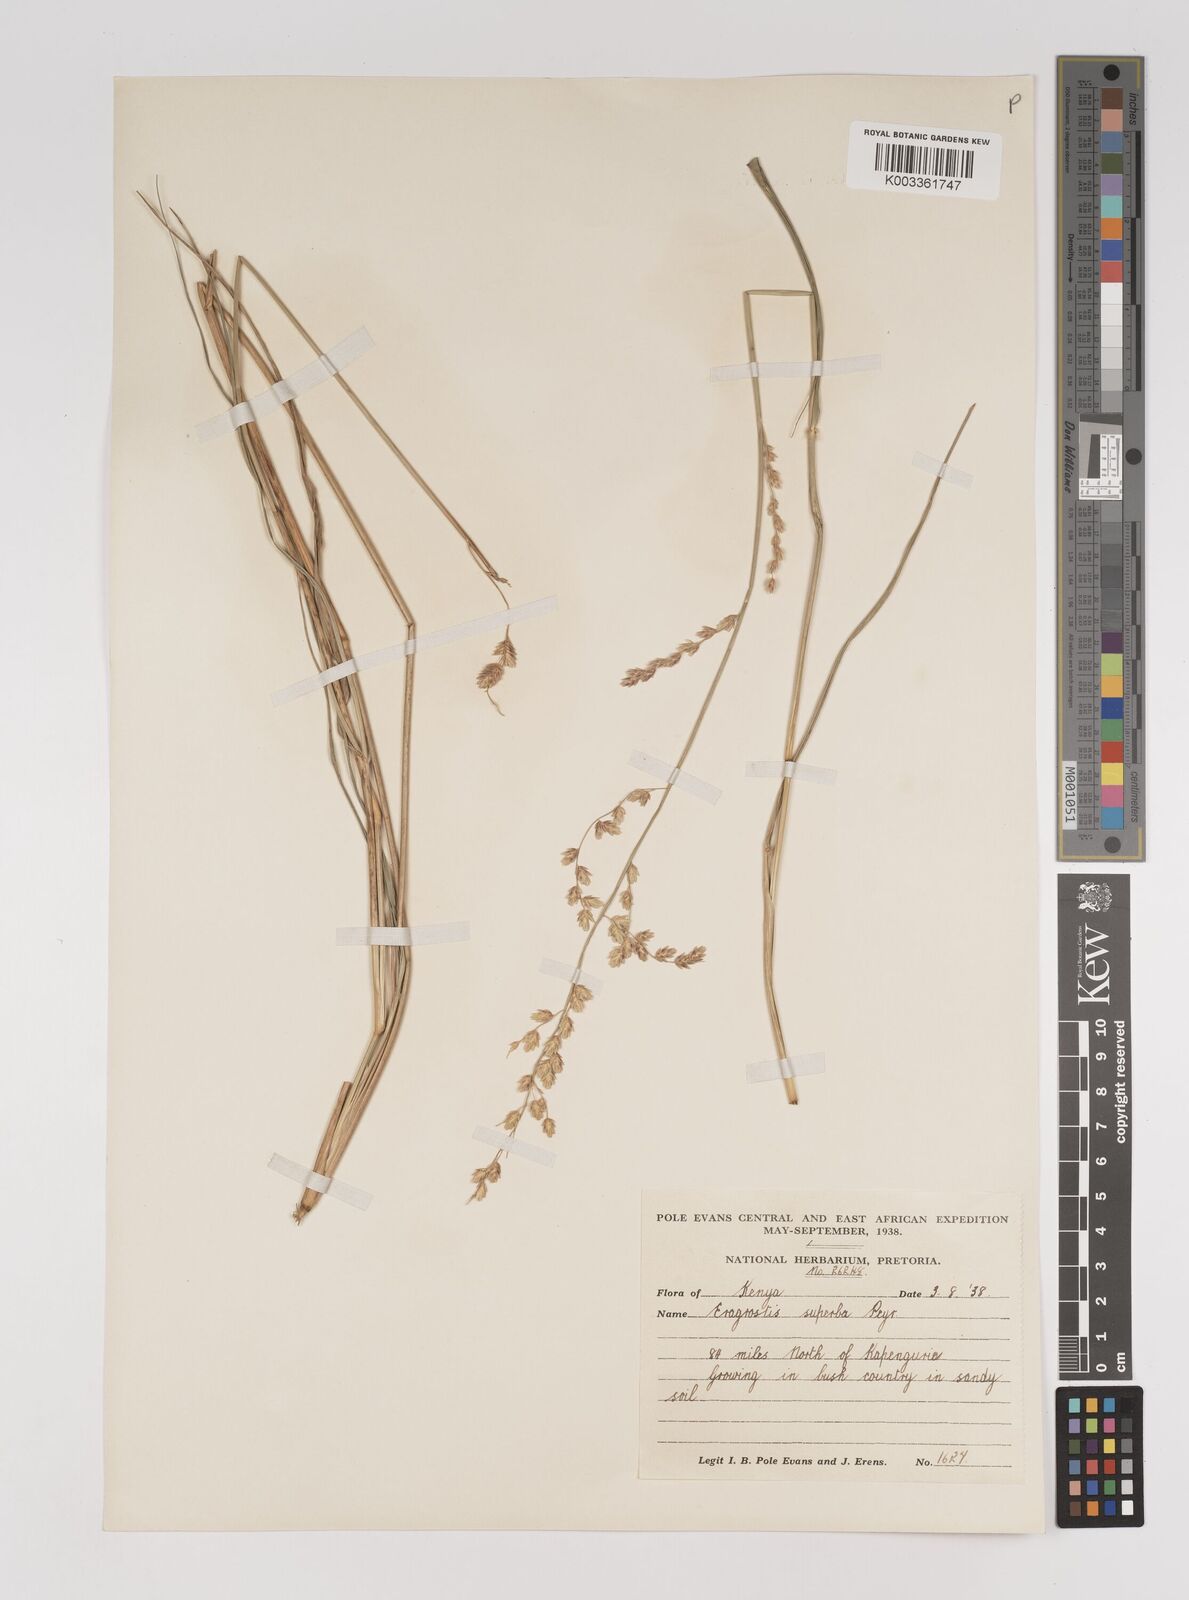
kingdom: Plantae
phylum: Tracheophyta
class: Liliopsida
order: Poales
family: Poaceae
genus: Eragrostis
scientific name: Eragrostis superba
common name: Wilman lovegrass
